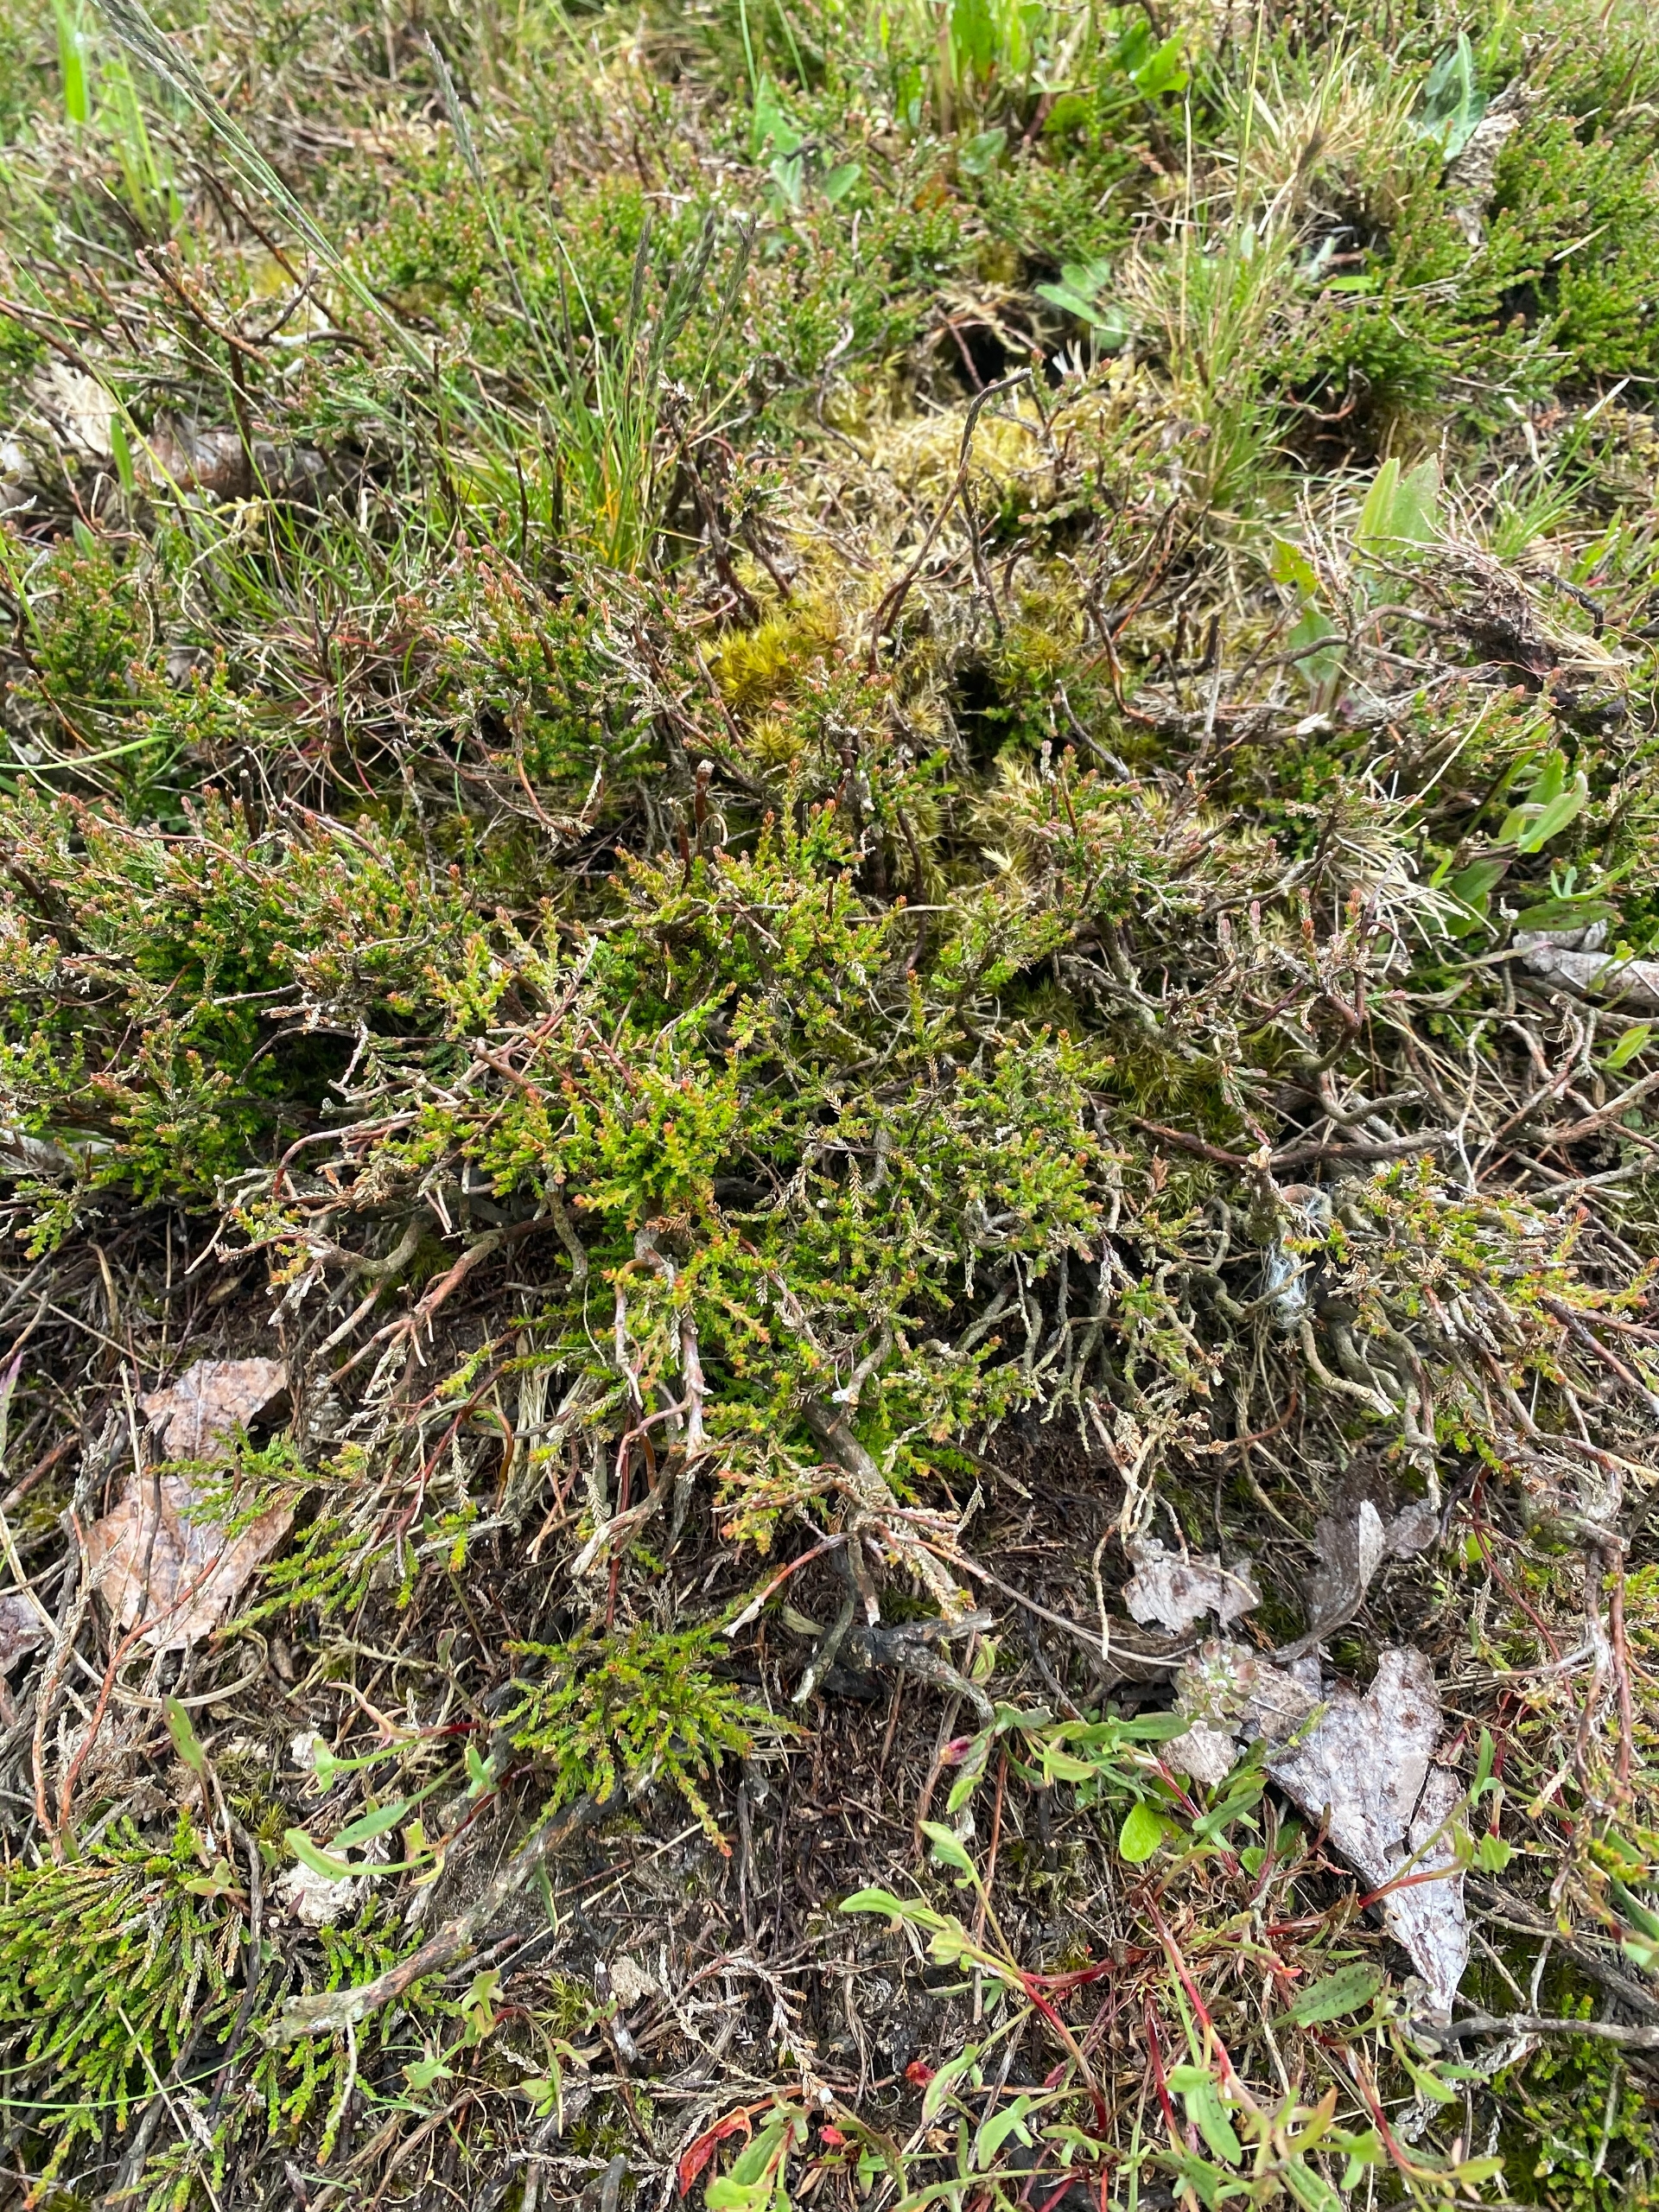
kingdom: Plantae
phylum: Tracheophyta
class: Magnoliopsida
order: Ericales
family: Ericaceae
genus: Calluna
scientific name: Calluna vulgaris
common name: Hedelyng
